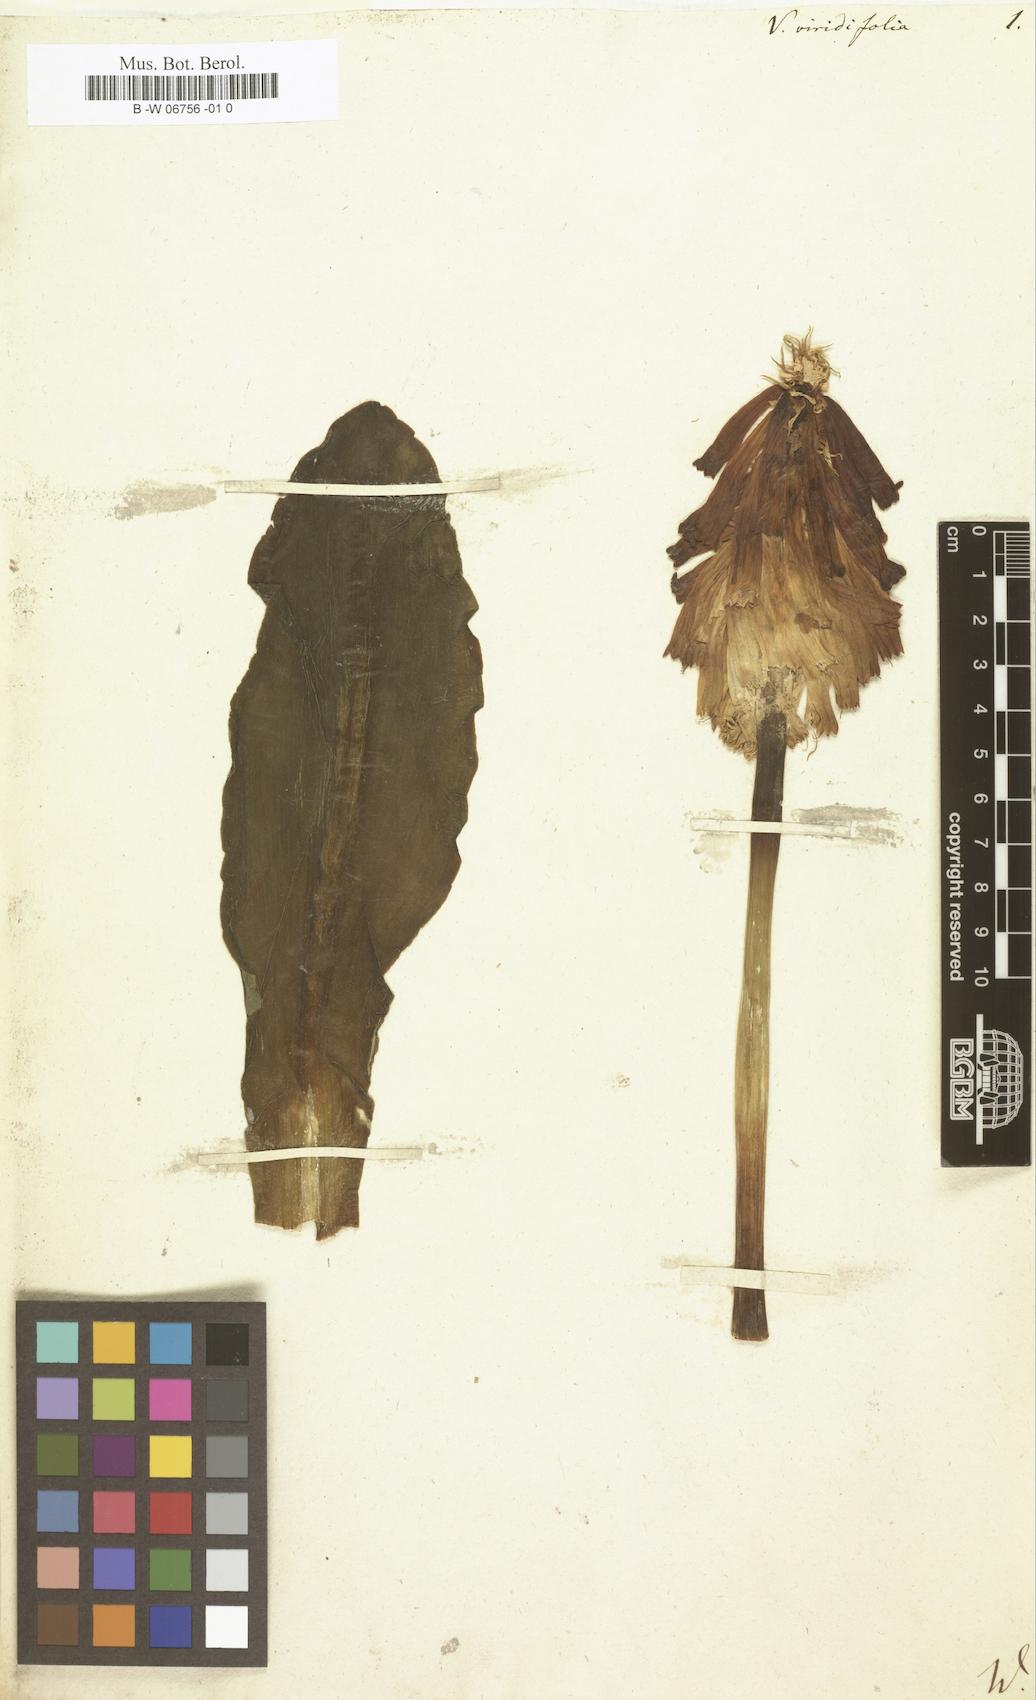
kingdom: Plantae
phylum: Tracheophyta
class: Liliopsida
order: Asparagales
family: Asparagaceae
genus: Veltheimia
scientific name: Veltheimia capensis
